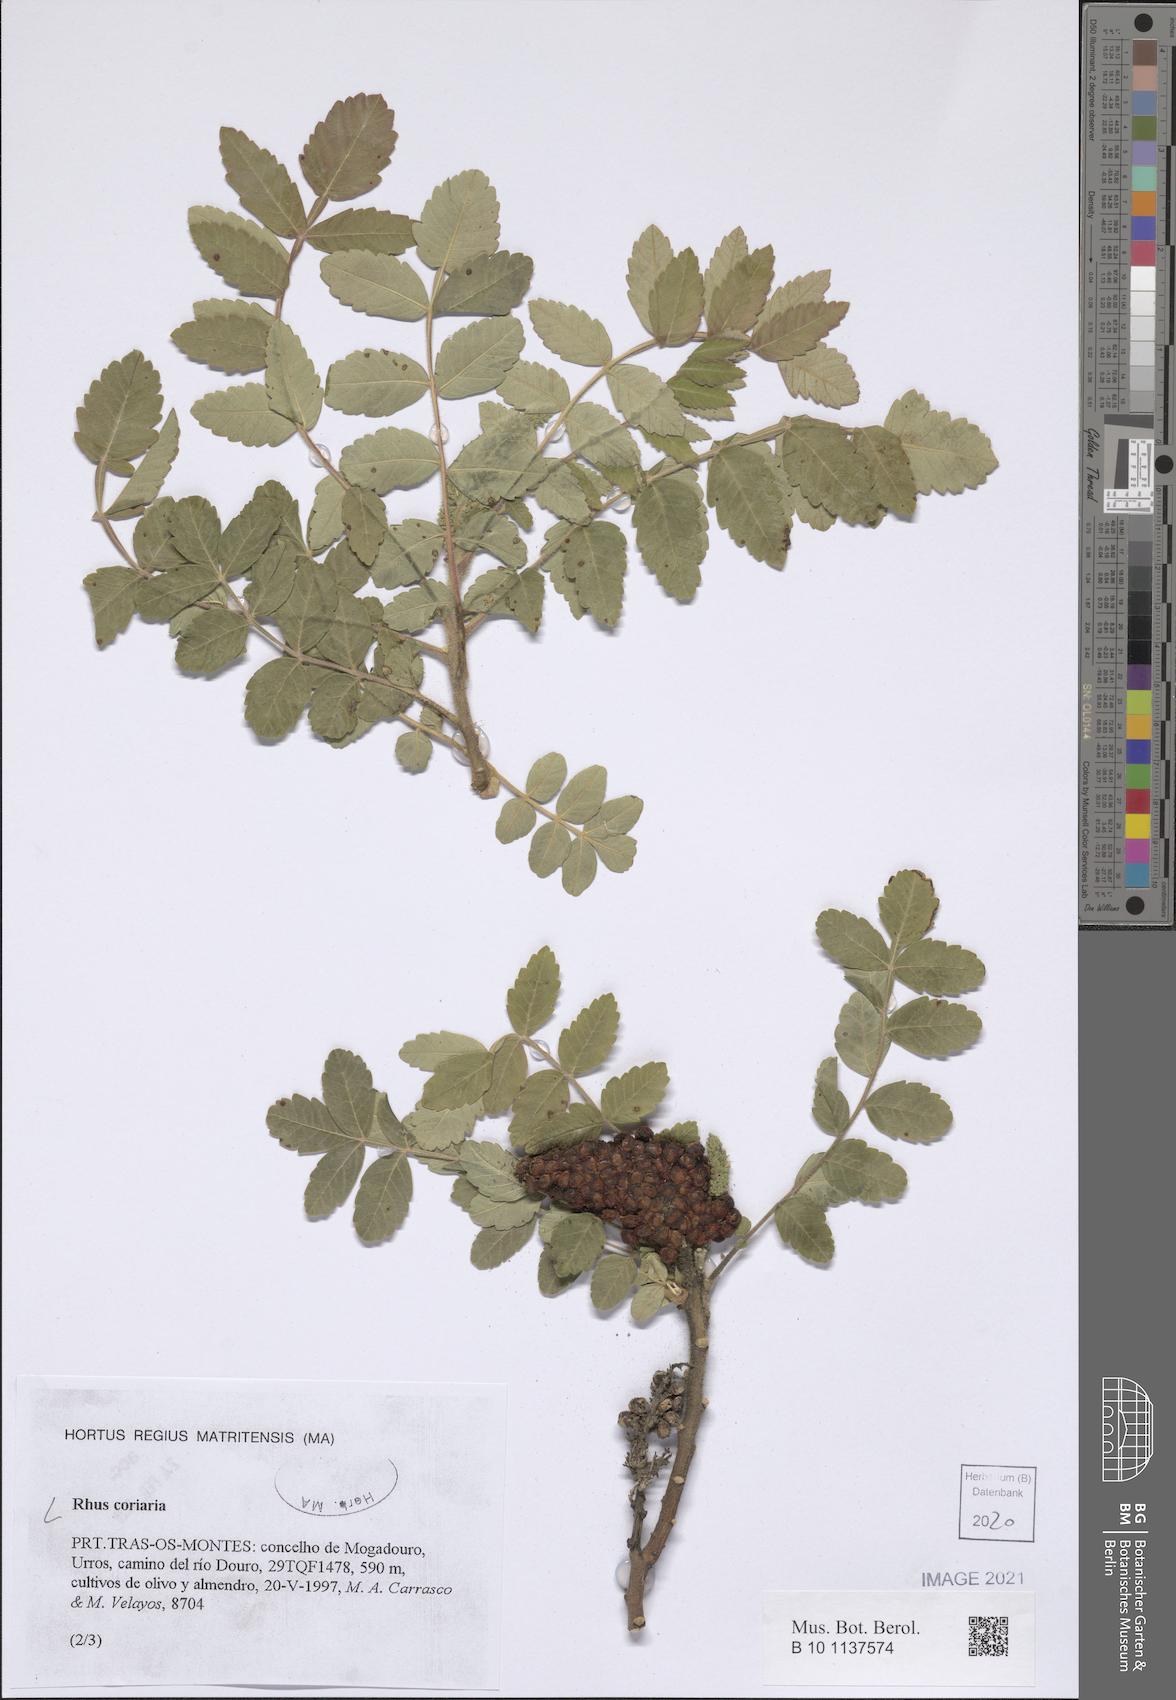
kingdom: Plantae
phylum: Tracheophyta
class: Magnoliopsida
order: Sapindales
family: Anacardiaceae
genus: Rhus
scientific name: Rhus coriaria
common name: Tanner's sumach
